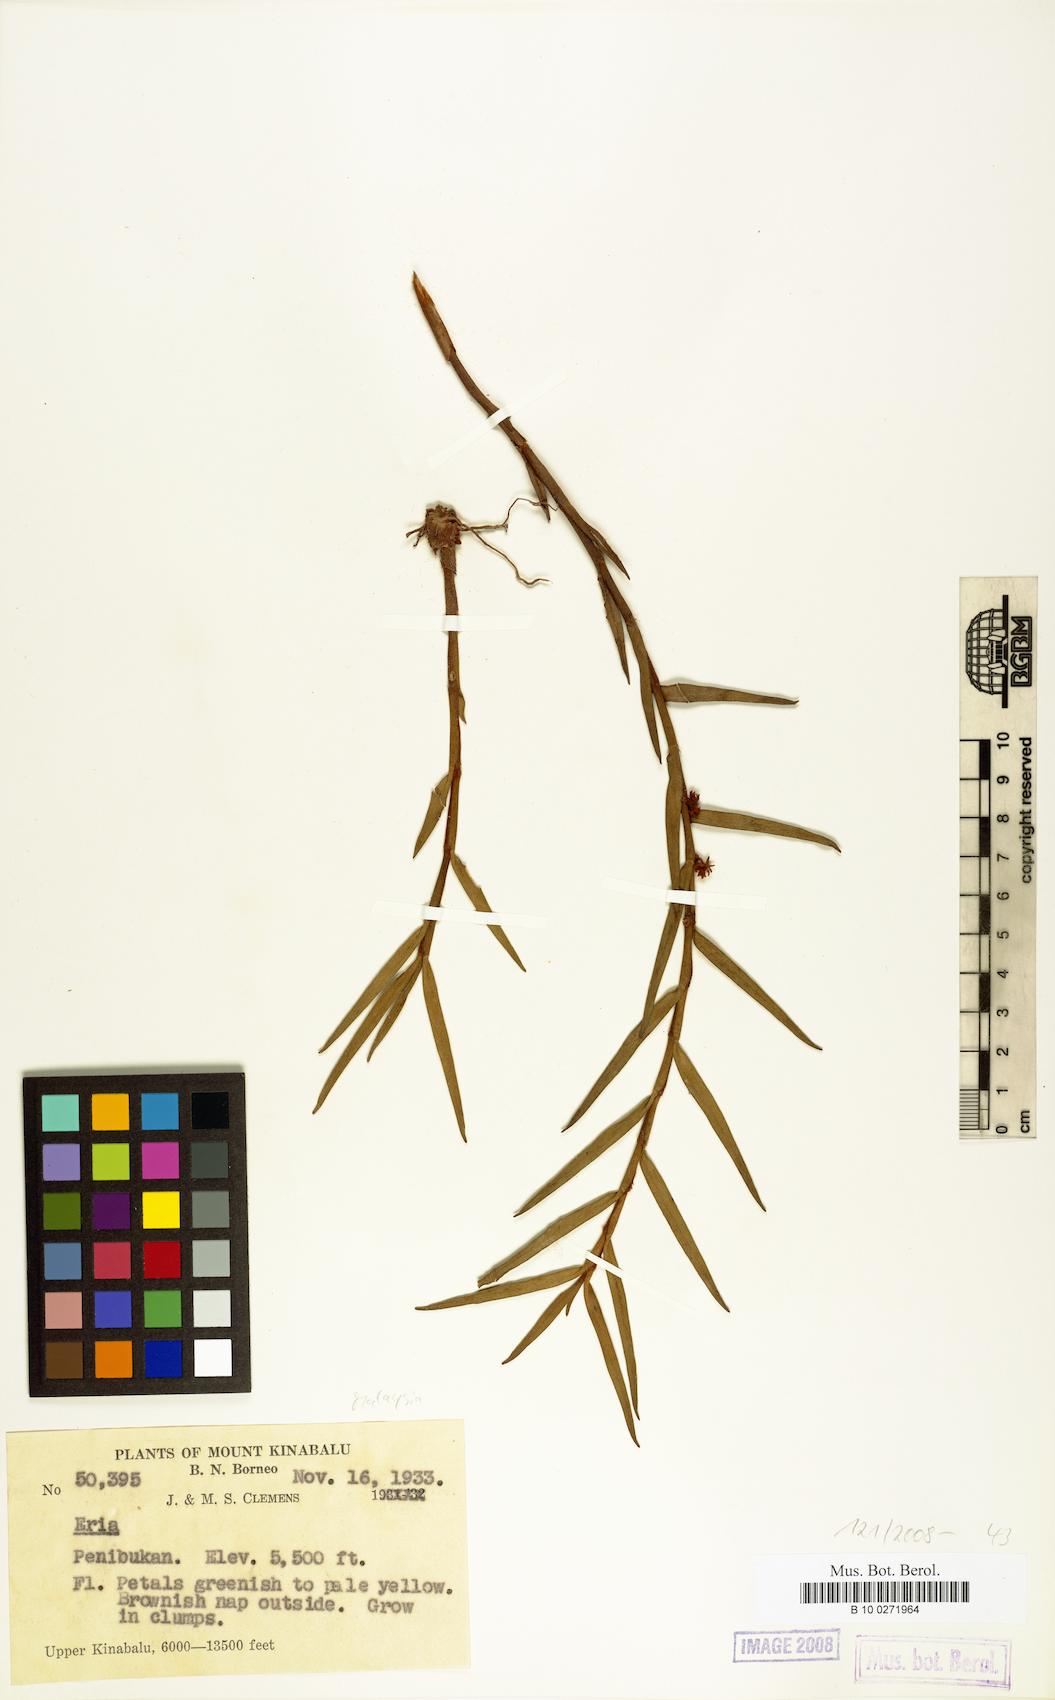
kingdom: Plantae
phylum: Tracheophyta
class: Liliopsida
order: Asparagales
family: Orchidaceae
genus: Eria
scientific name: Eria
